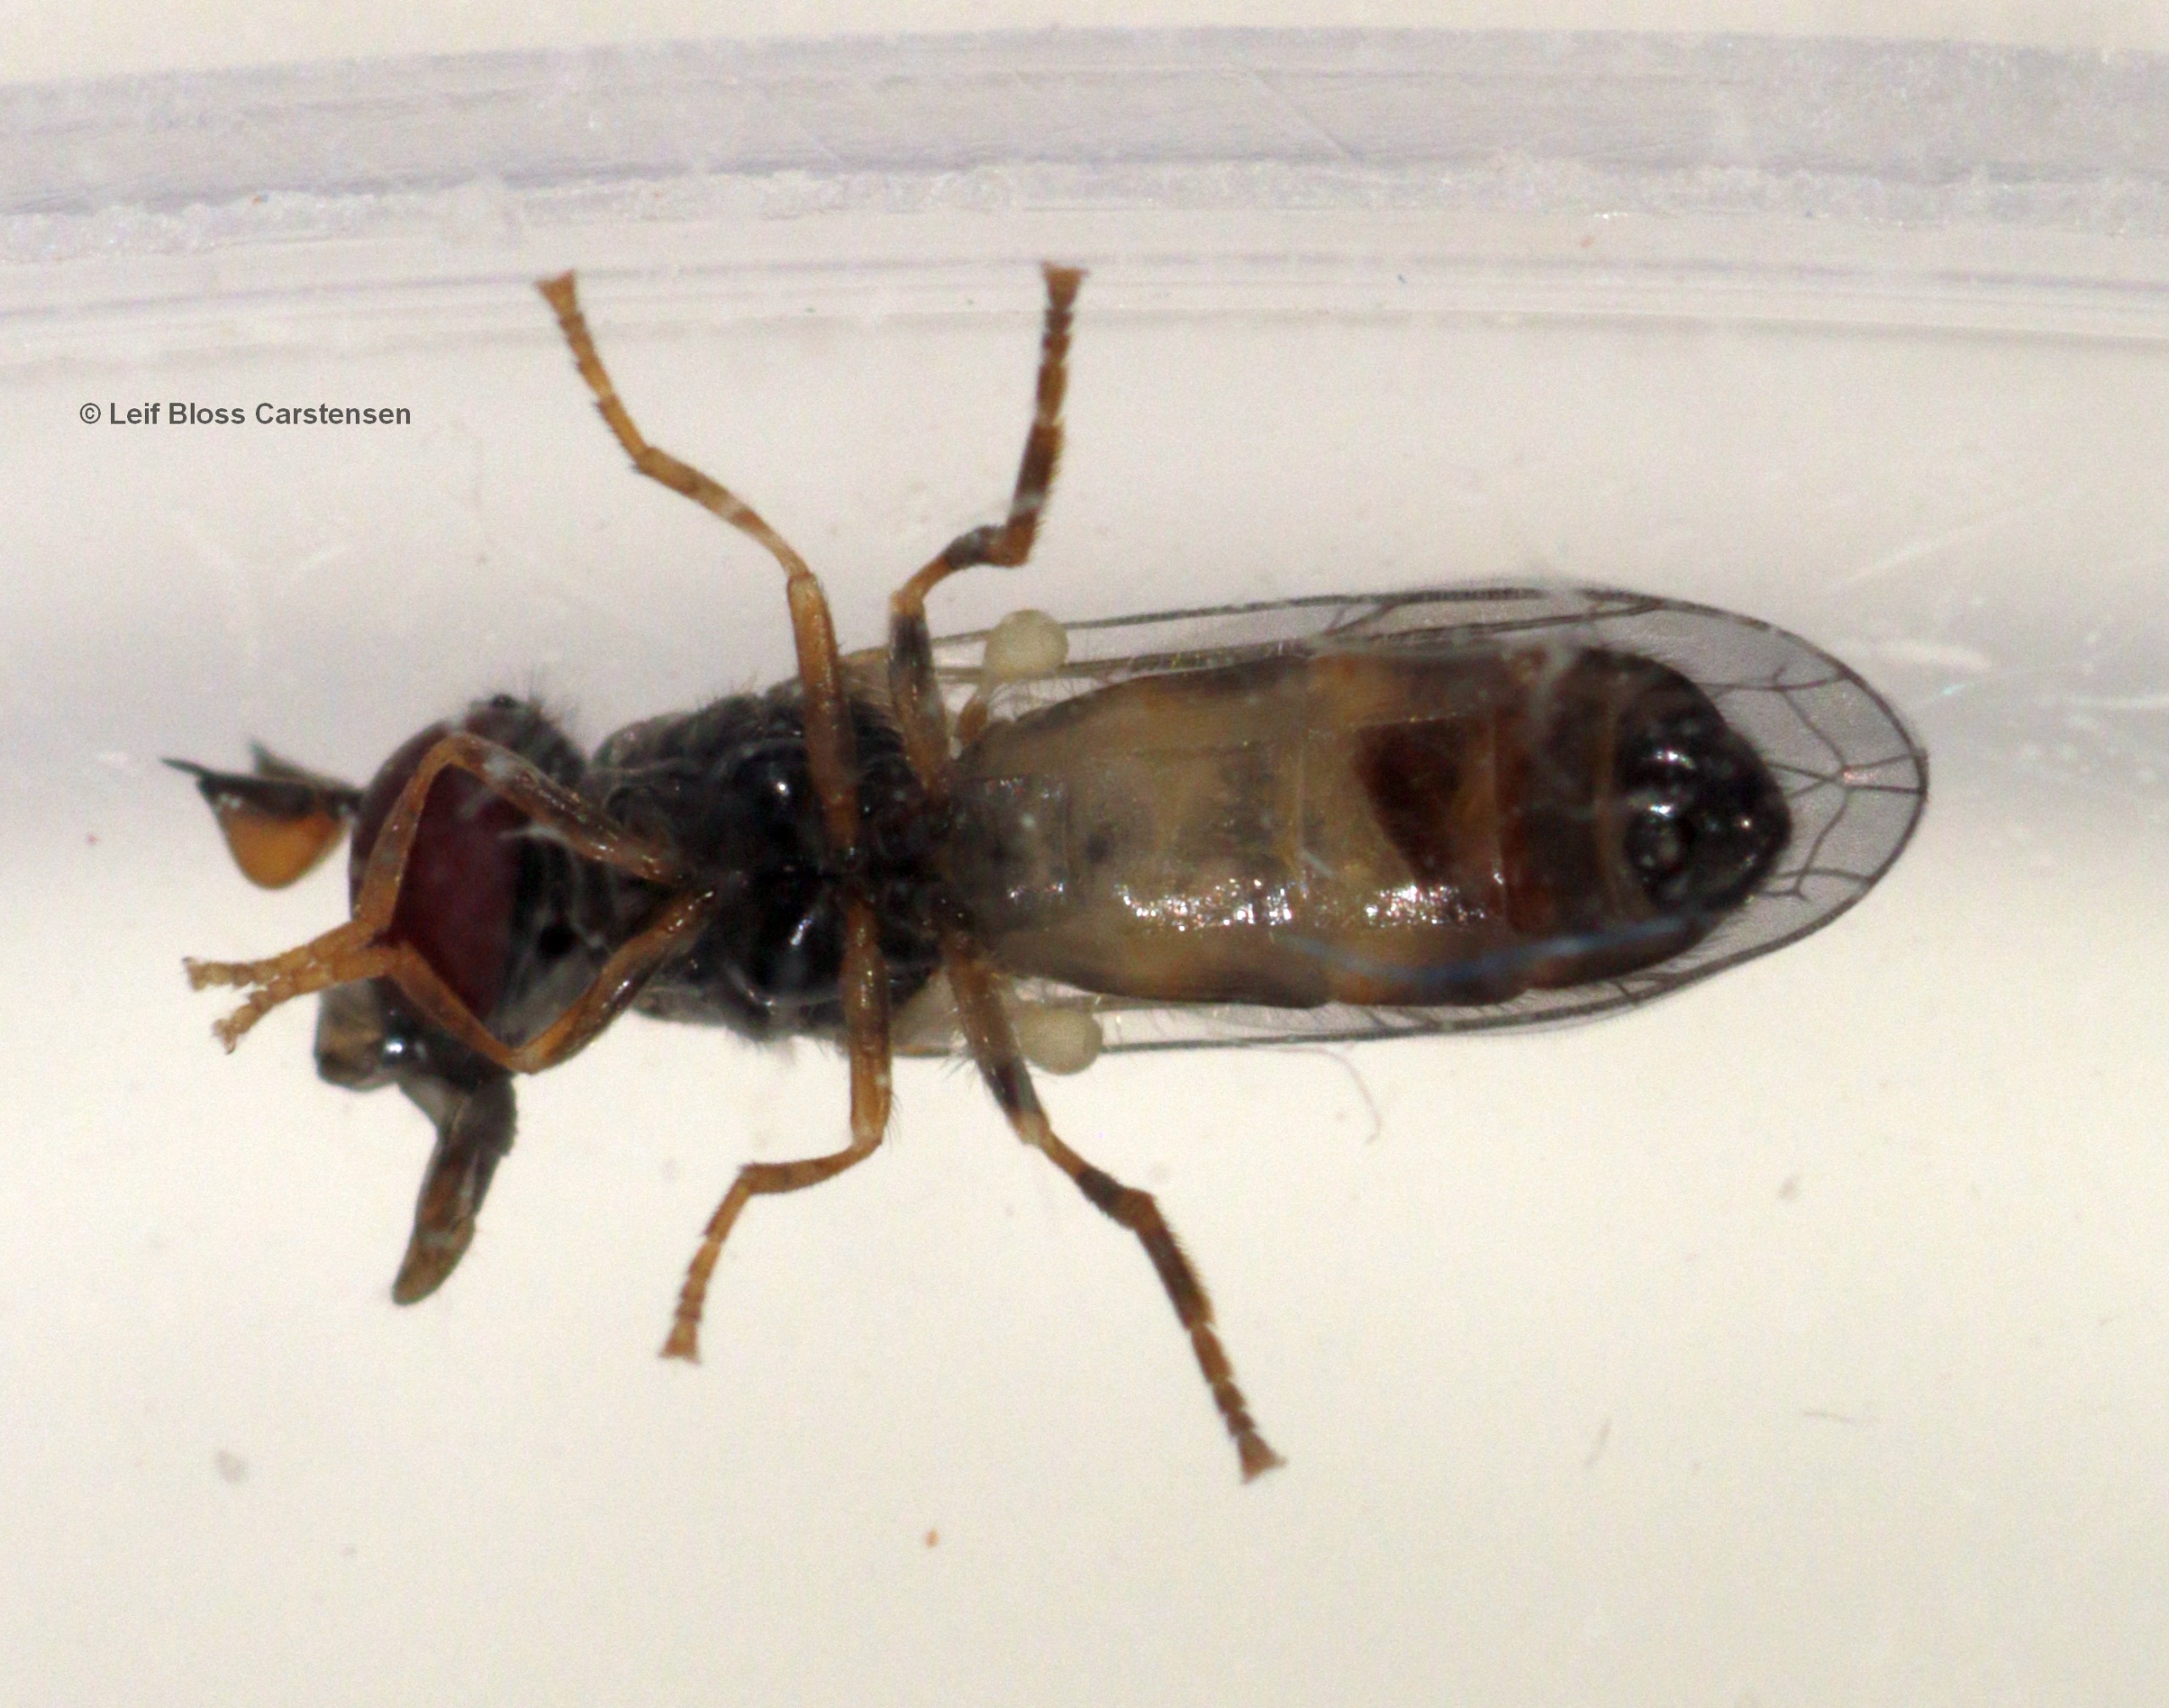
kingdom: Animalia
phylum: Arthropoda
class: Insecta
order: Diptera
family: Syrphidae
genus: Chamaesyrphus
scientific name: Chamaesyrphus lugubris
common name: Dværg-svirreflue
